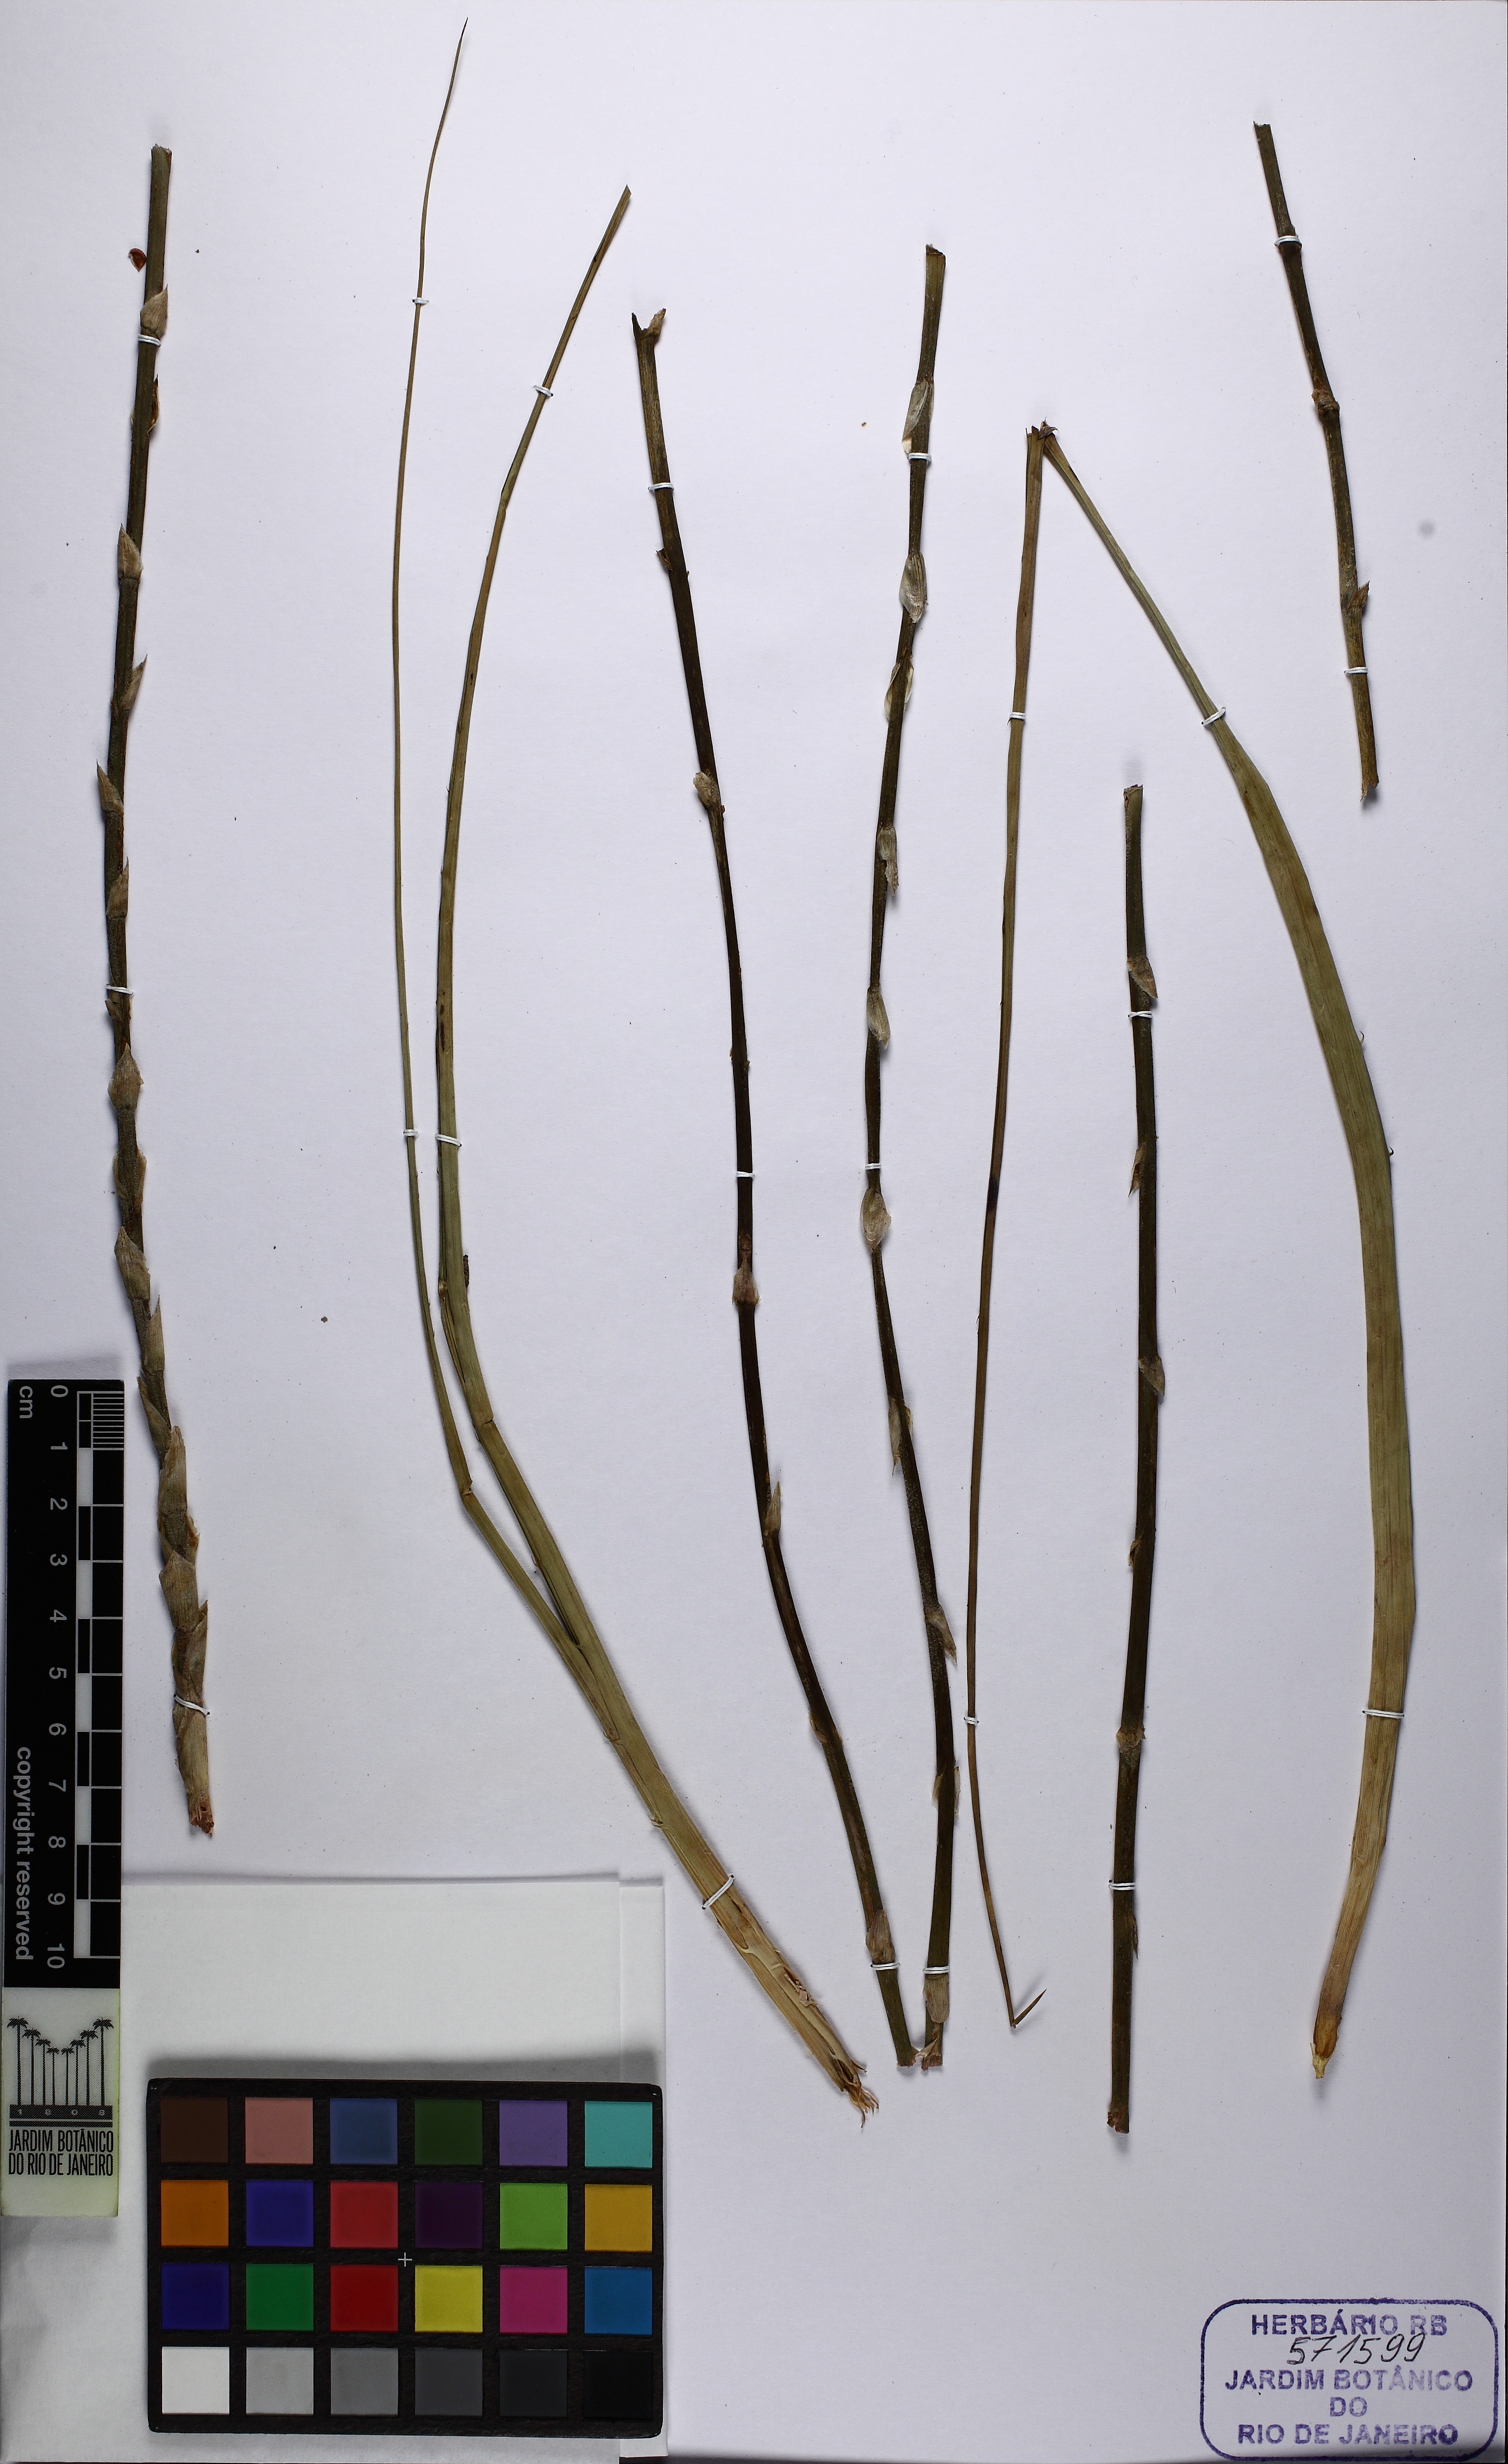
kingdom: Plantae
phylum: Tracheophyta
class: Liliopsida
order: Poales
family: Bromeliaceae
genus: Dyckia
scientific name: Dyckia ragonesei
